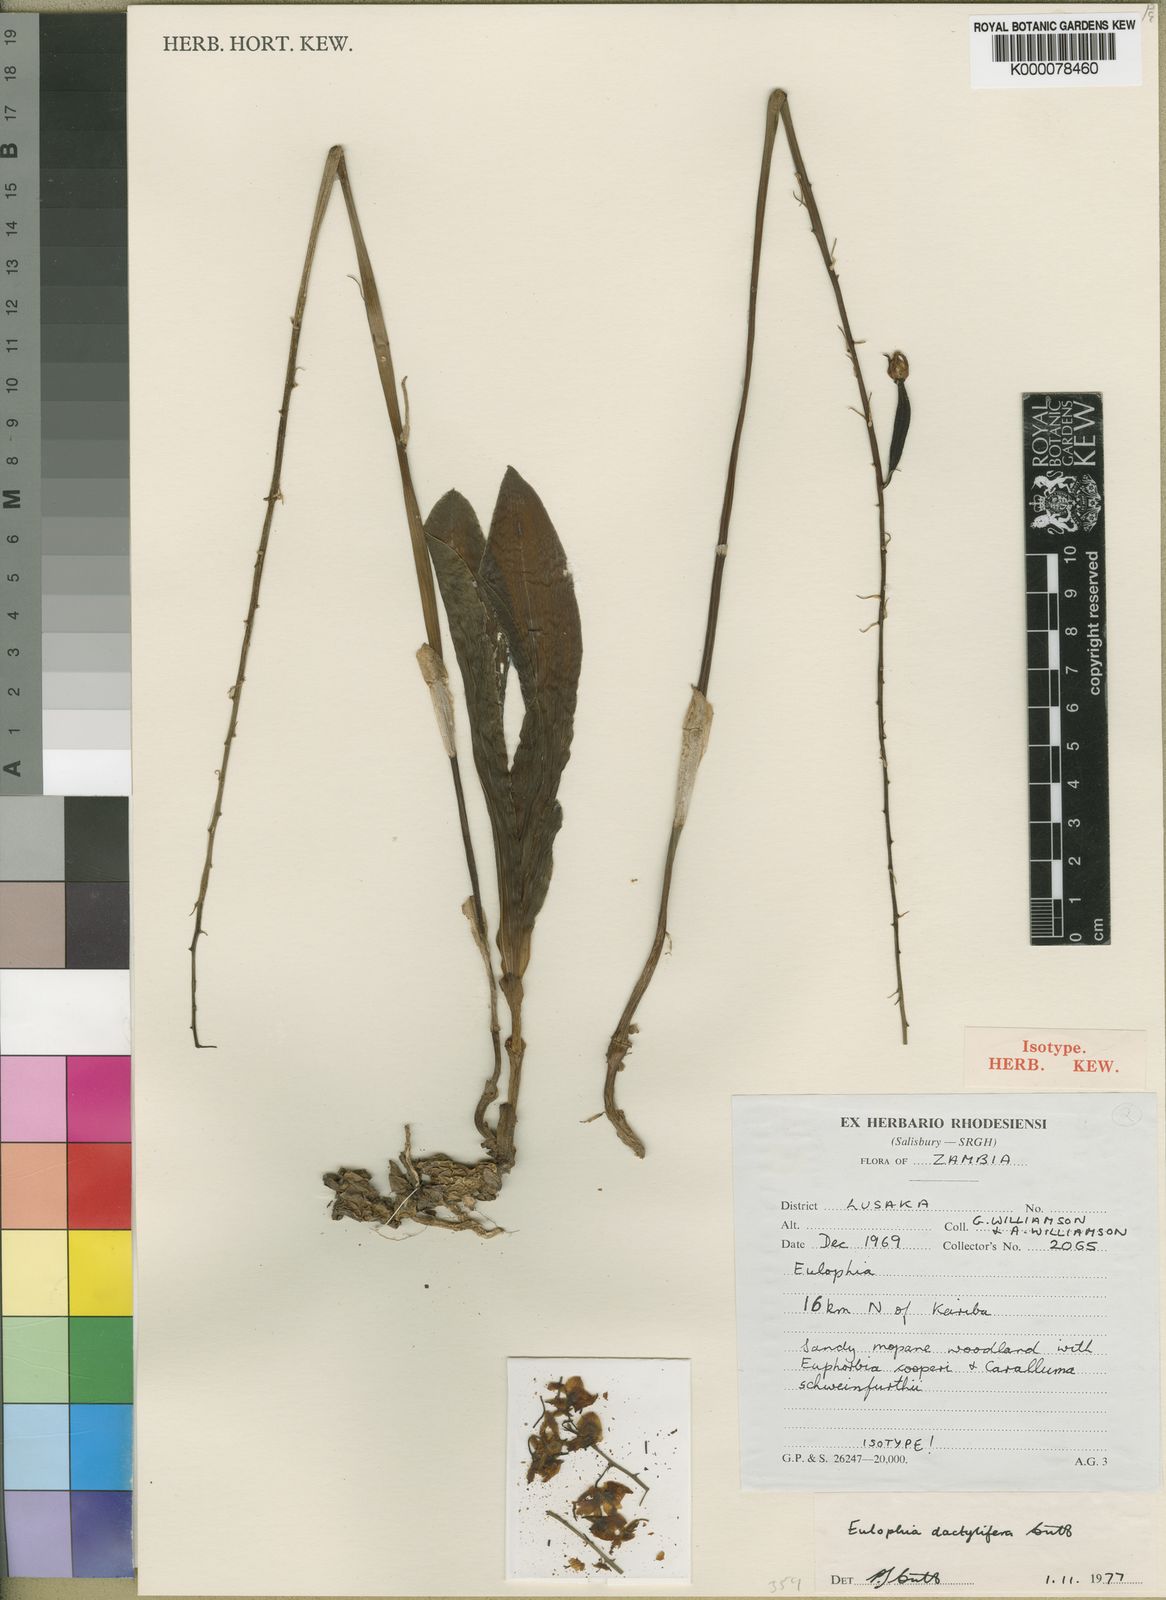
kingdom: Plantae
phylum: Tracheophyta
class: Liliopsida
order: Asparagales
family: Orchidaceae
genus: Eulophia
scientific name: Eulophia dactylifera
